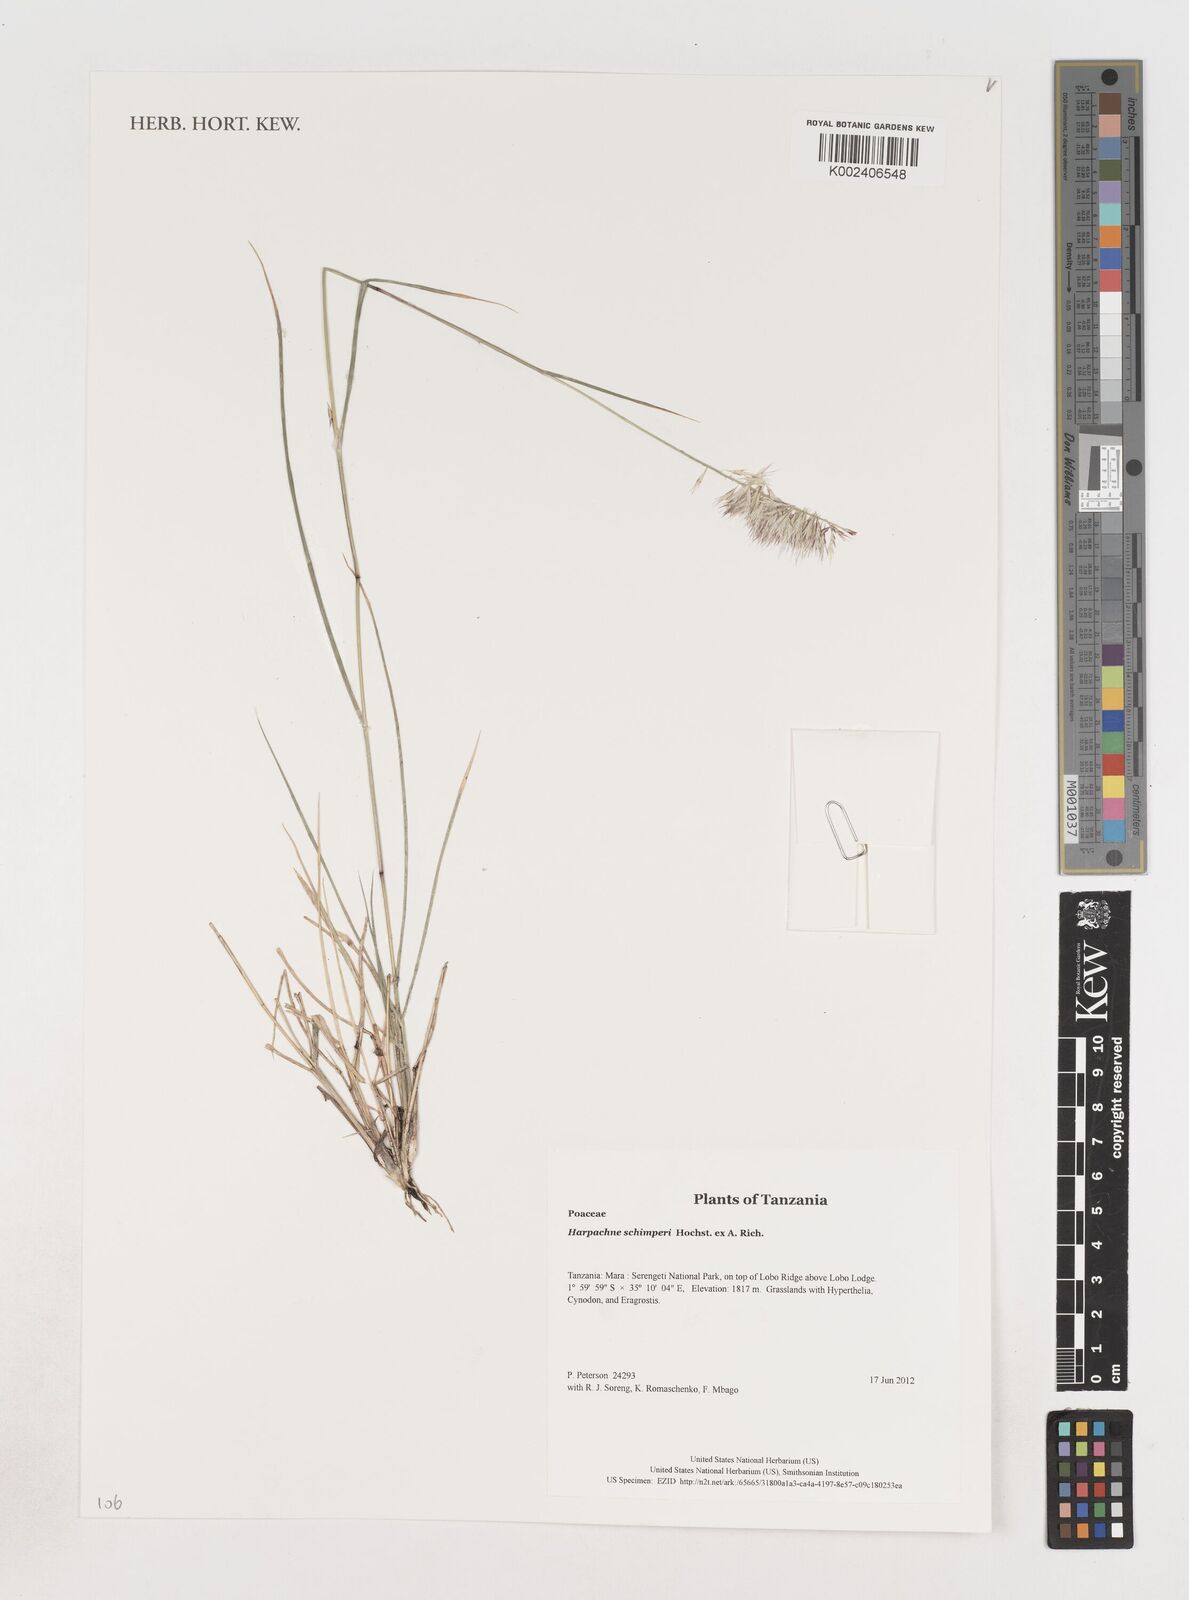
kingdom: Plantae
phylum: Tracheophyta
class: Liliopsida
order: Poales
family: Poaceae
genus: Harpachne
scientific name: Harpachne schimperi
